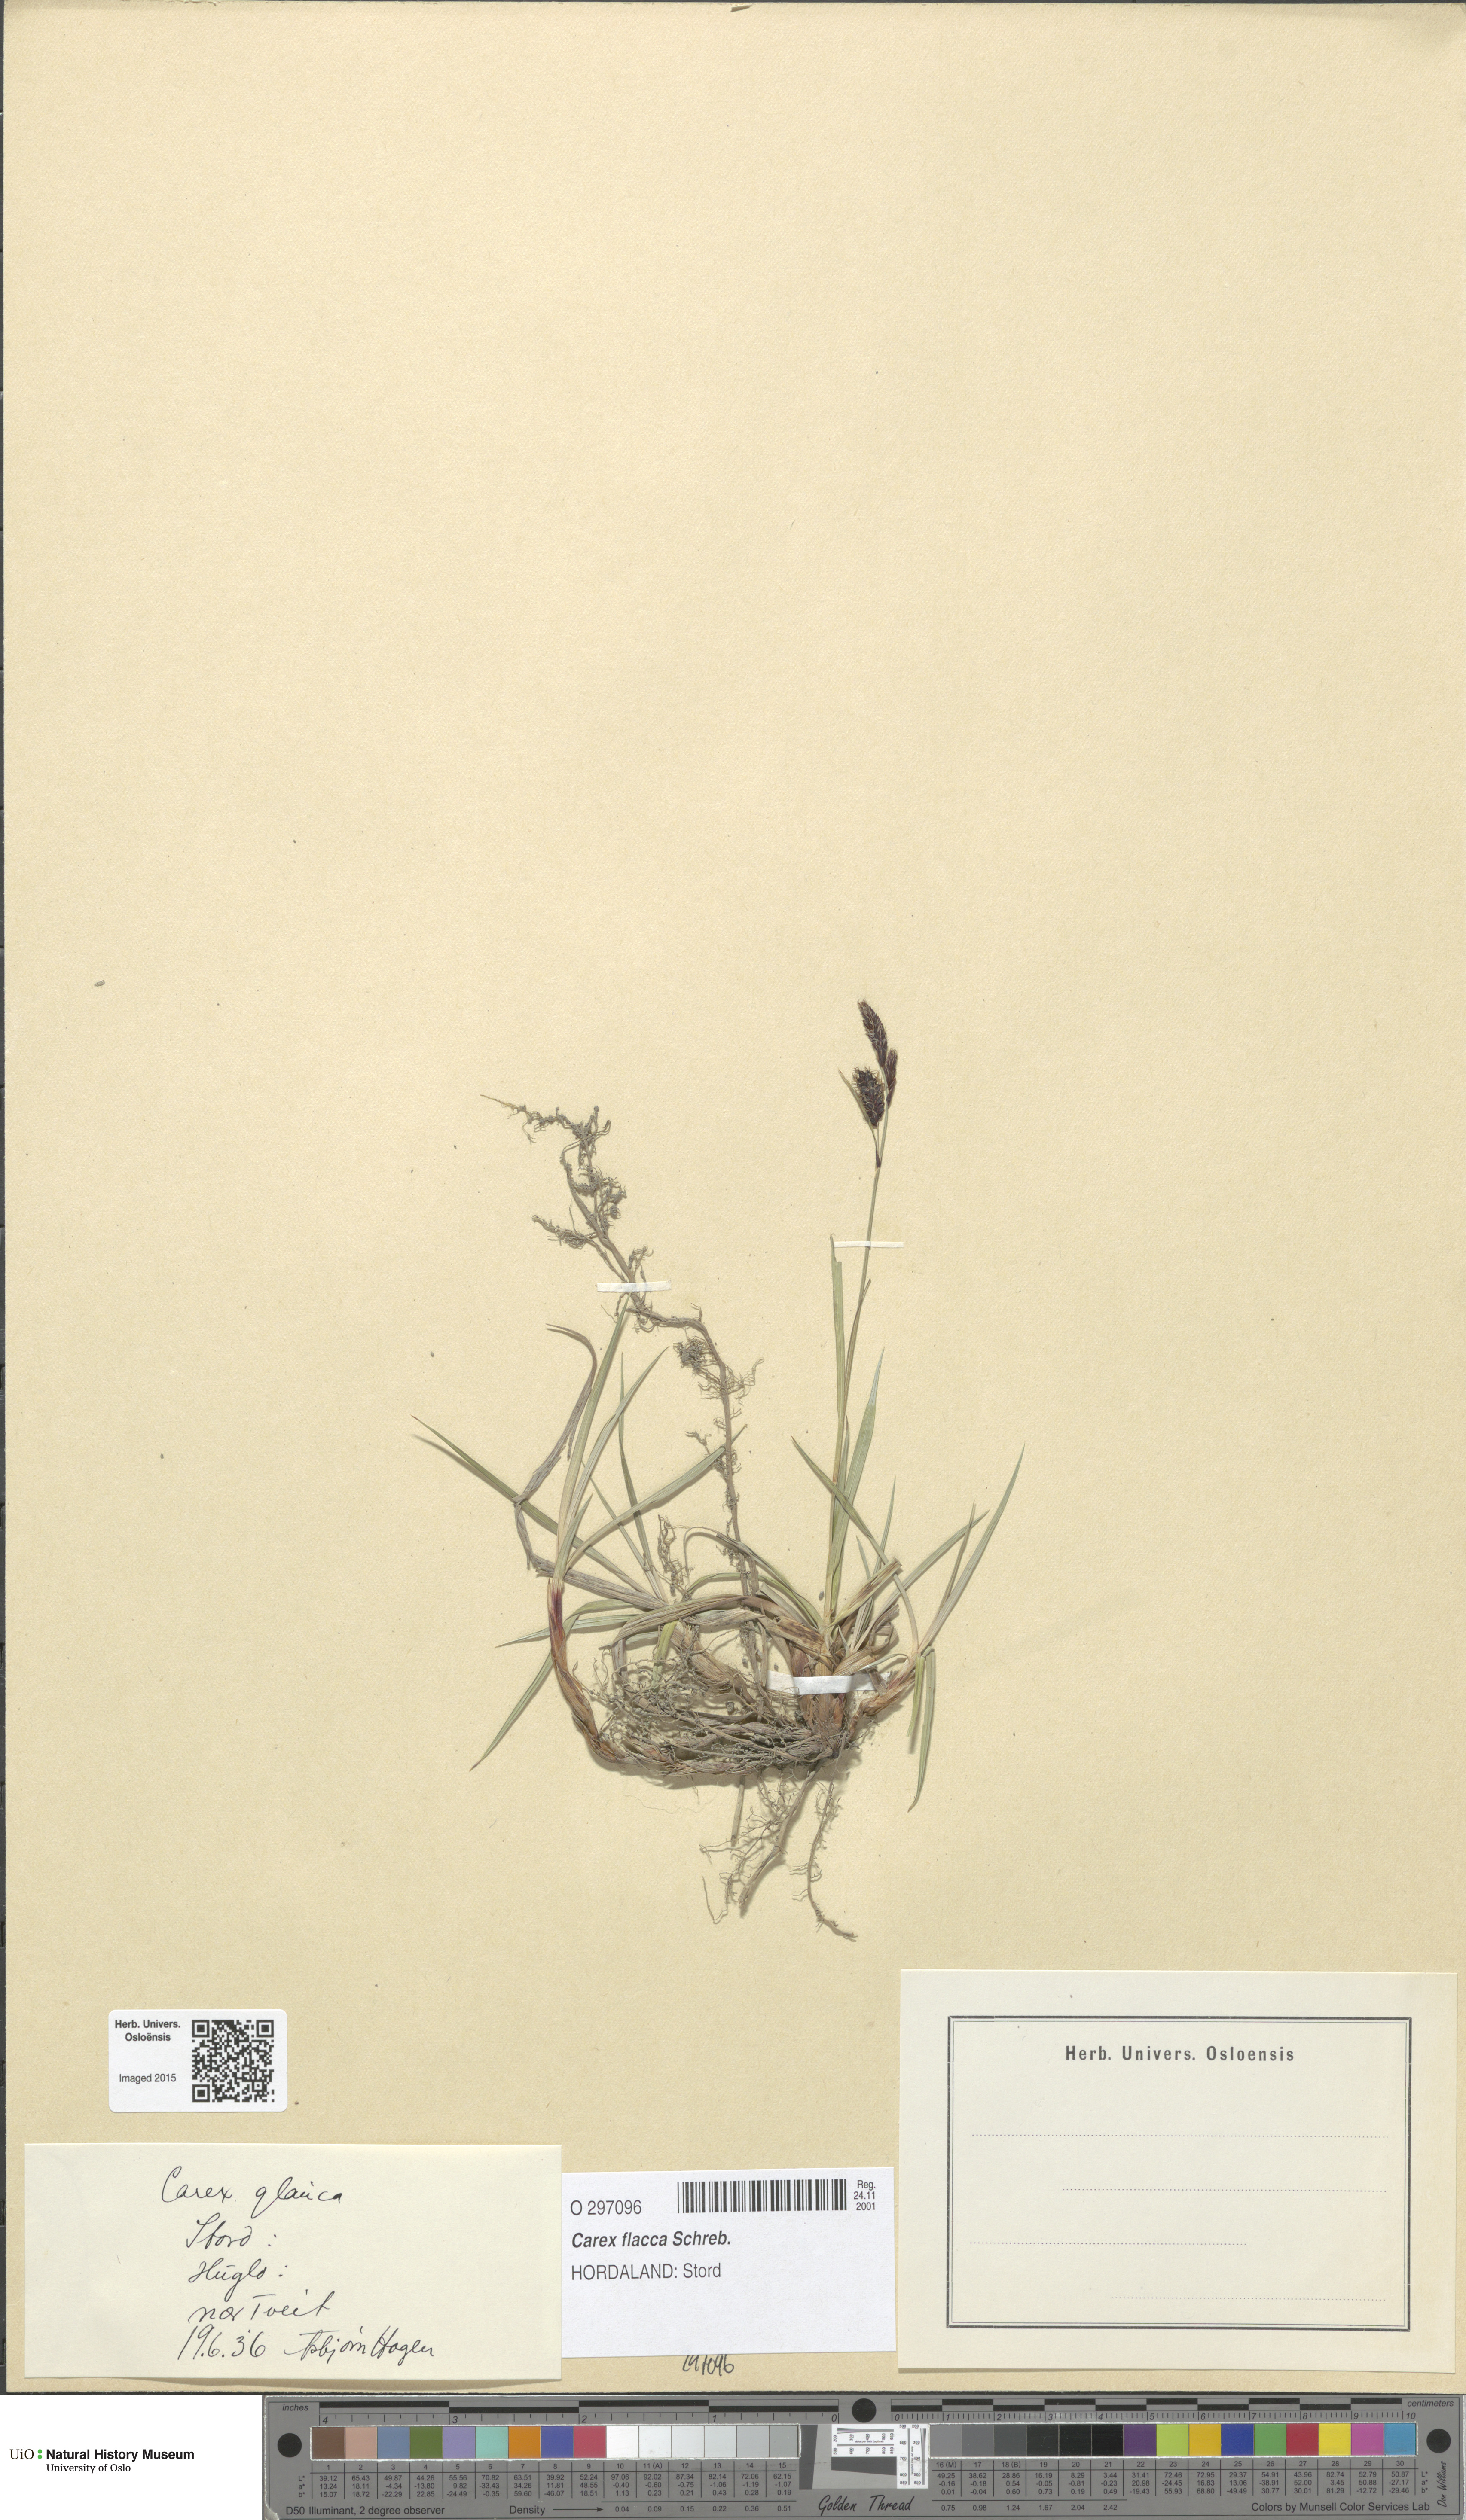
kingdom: Plantae
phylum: Tracheophyta
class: Liliopsida
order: Poales
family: Cyperaceae
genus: Carex
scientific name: Carex flacca
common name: Glaucous sedge
